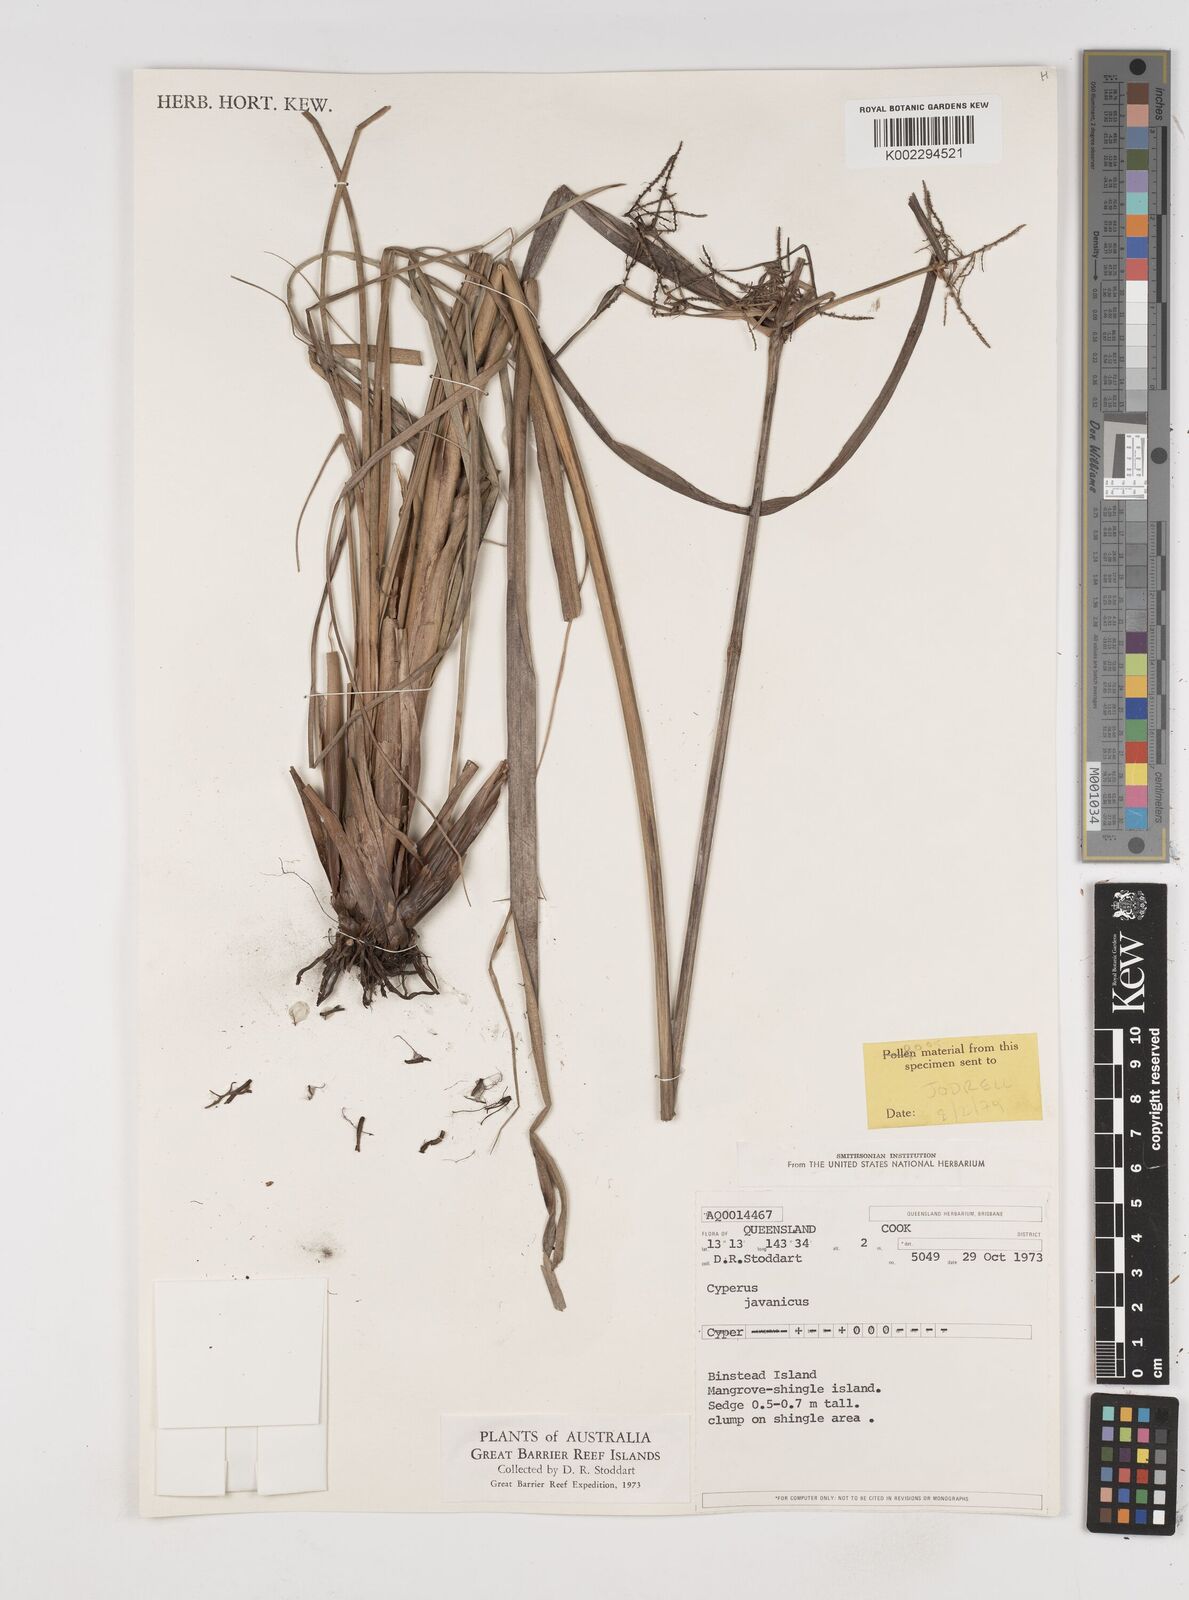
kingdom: Plantae
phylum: Tracheophyta
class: Liliopsida
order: Poales
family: Cyperaceae
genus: Cyperus
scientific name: Cyperus javanicus
